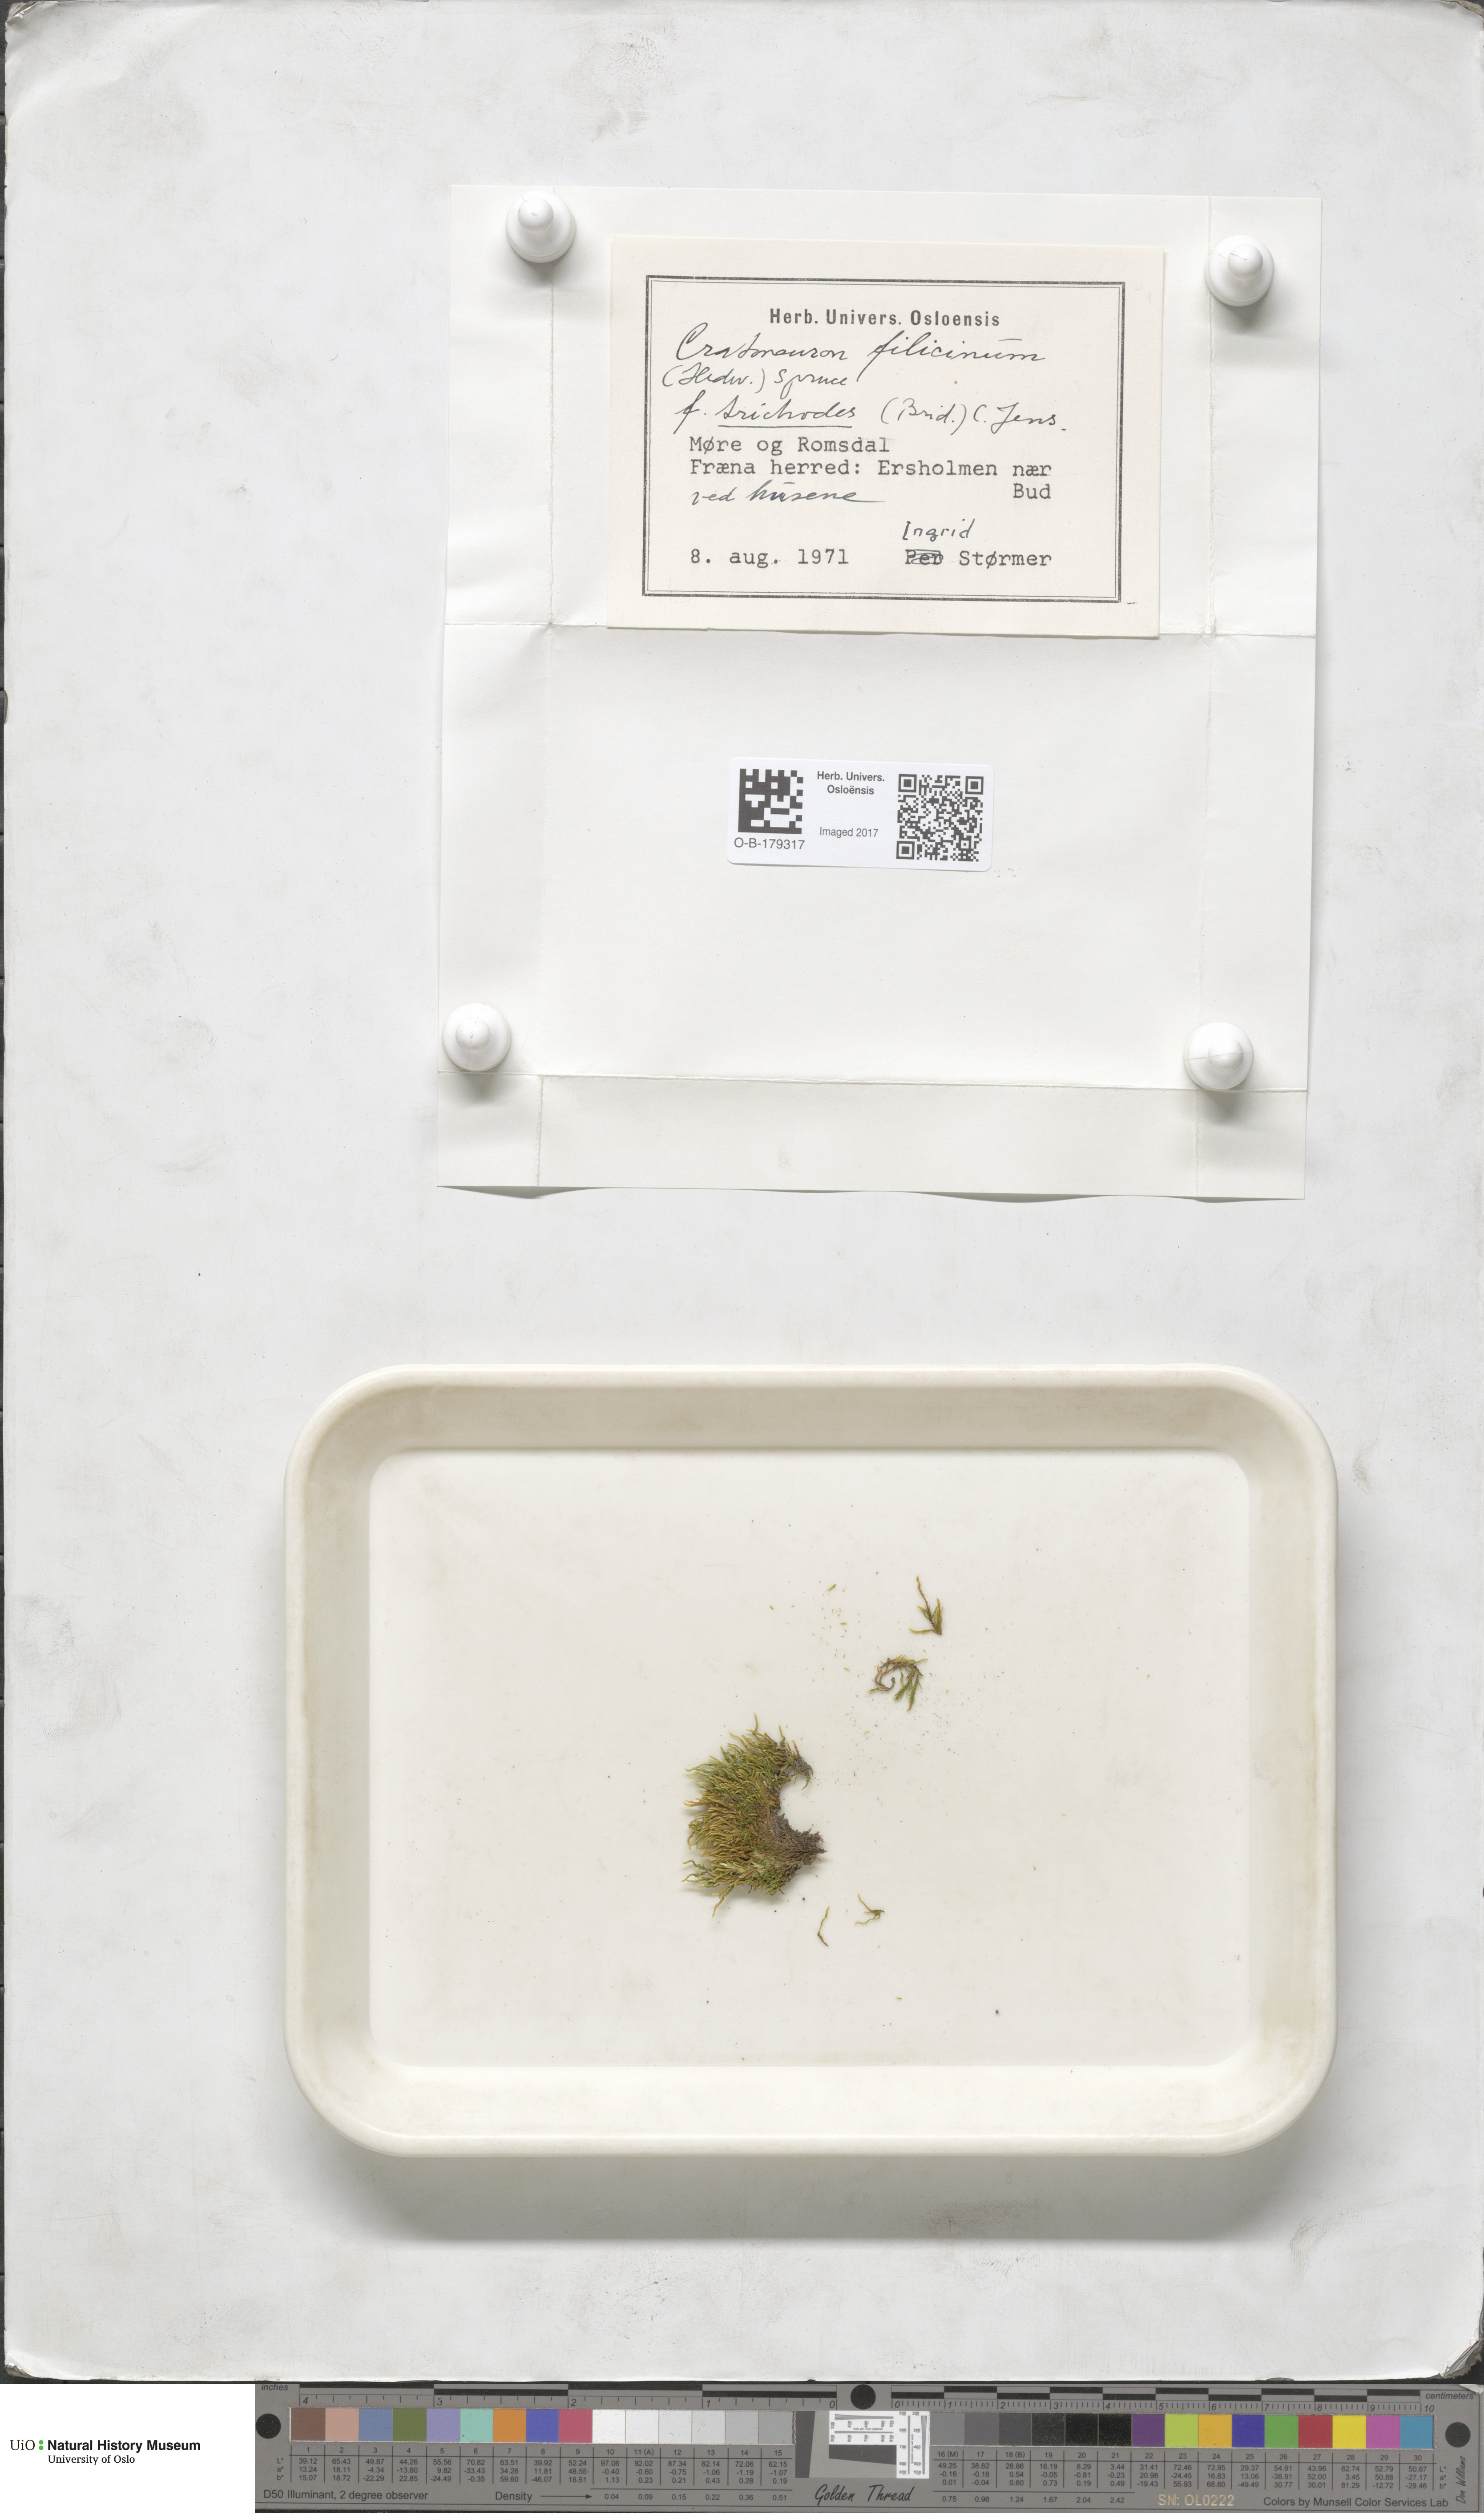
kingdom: Plantae
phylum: Bryophyta
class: Bryopsida
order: Hypnales
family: Amblystegiaceae
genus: Cratoneuron
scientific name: Cratoneuron filicinum
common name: Fern-leaved hook moss
